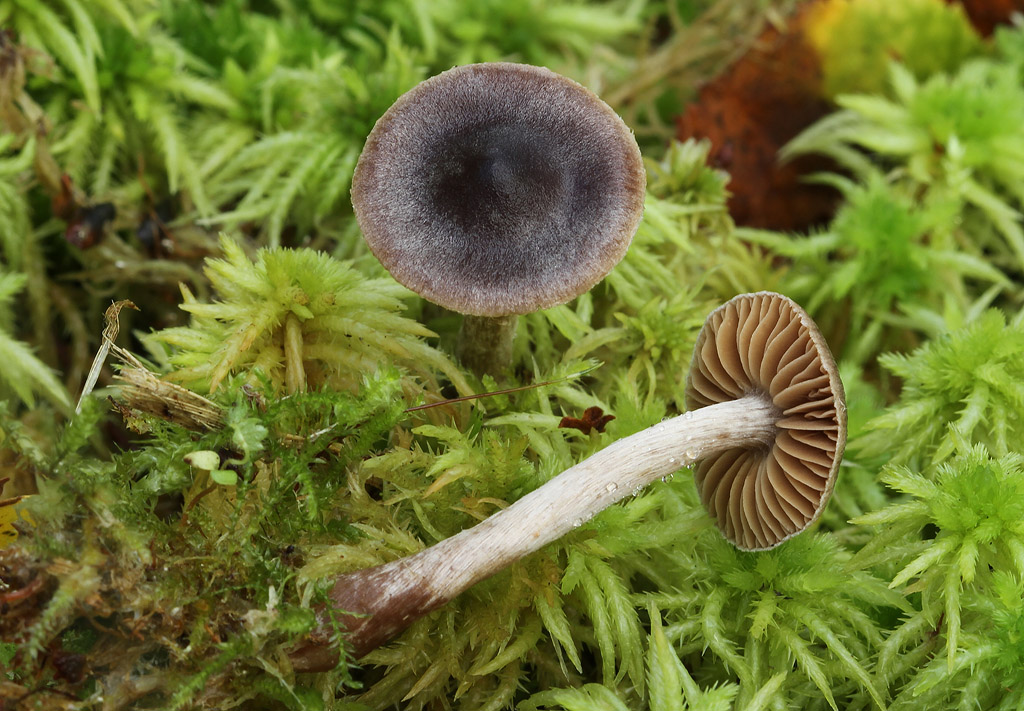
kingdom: Fungi
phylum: Basidiomycota
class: Agaricomycetes
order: Agaricales
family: Cortinariaceae
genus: Cortinarius
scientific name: Cortinarius hirtus
